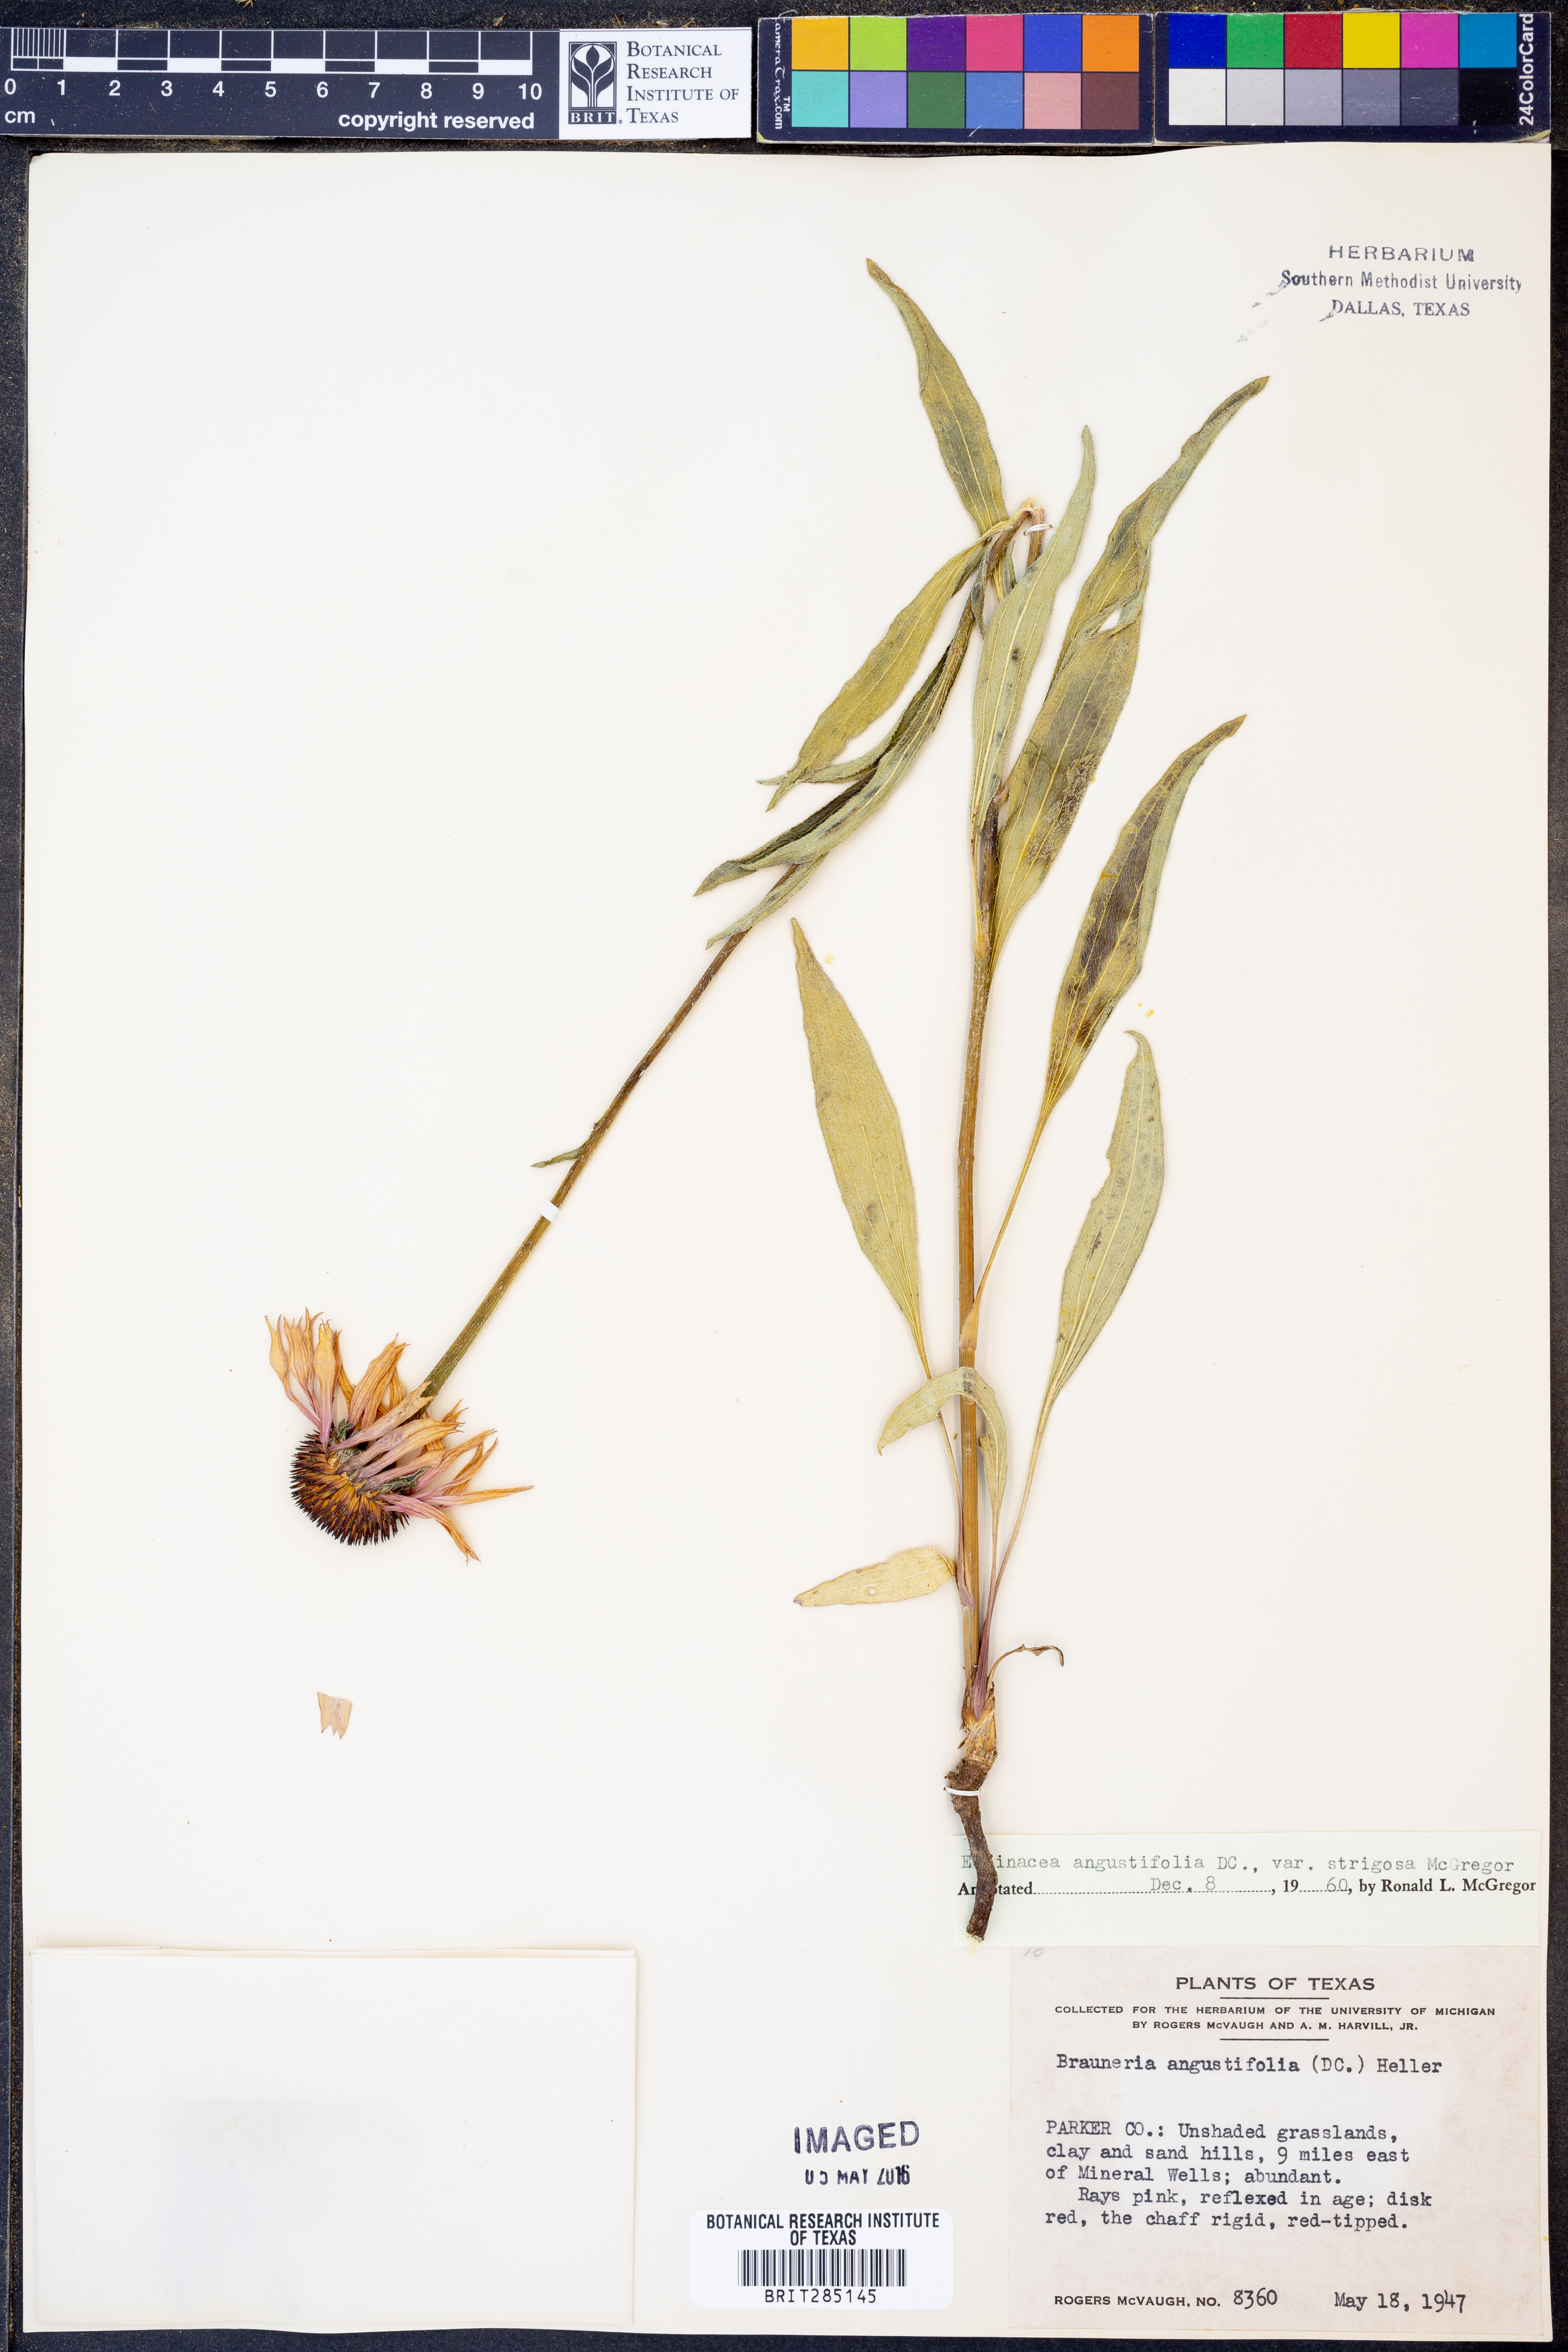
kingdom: Plantae
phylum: Tracheophyta
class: Magnoliopsida
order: Asterales
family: Asteraceae
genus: Echinacea
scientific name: Echinacea angustifolia
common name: Black-sampson echinacea
